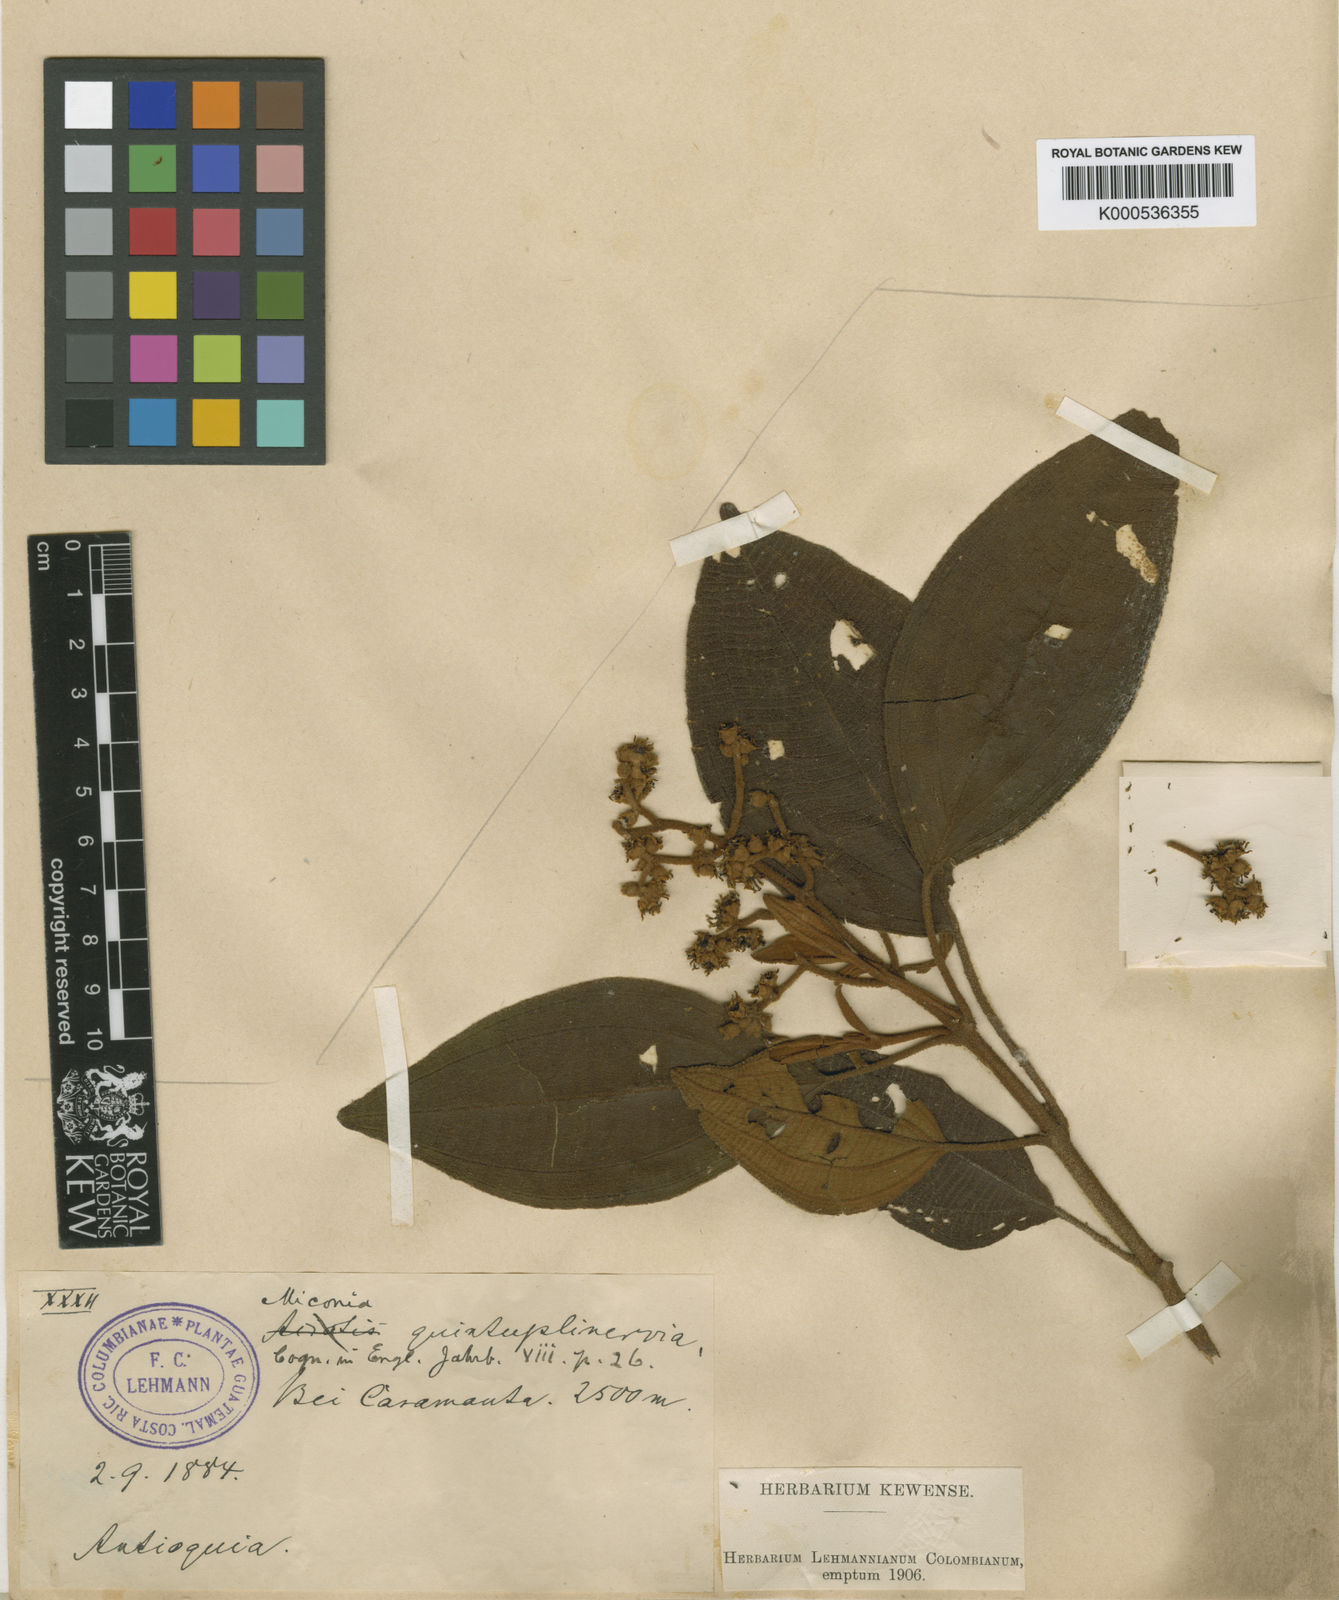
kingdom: Plantae
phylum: Tracheophyta
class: Magnoliopsida
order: Myrtales
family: Melastomataceae
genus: Miconia
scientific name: Miconia quintuplinervia
